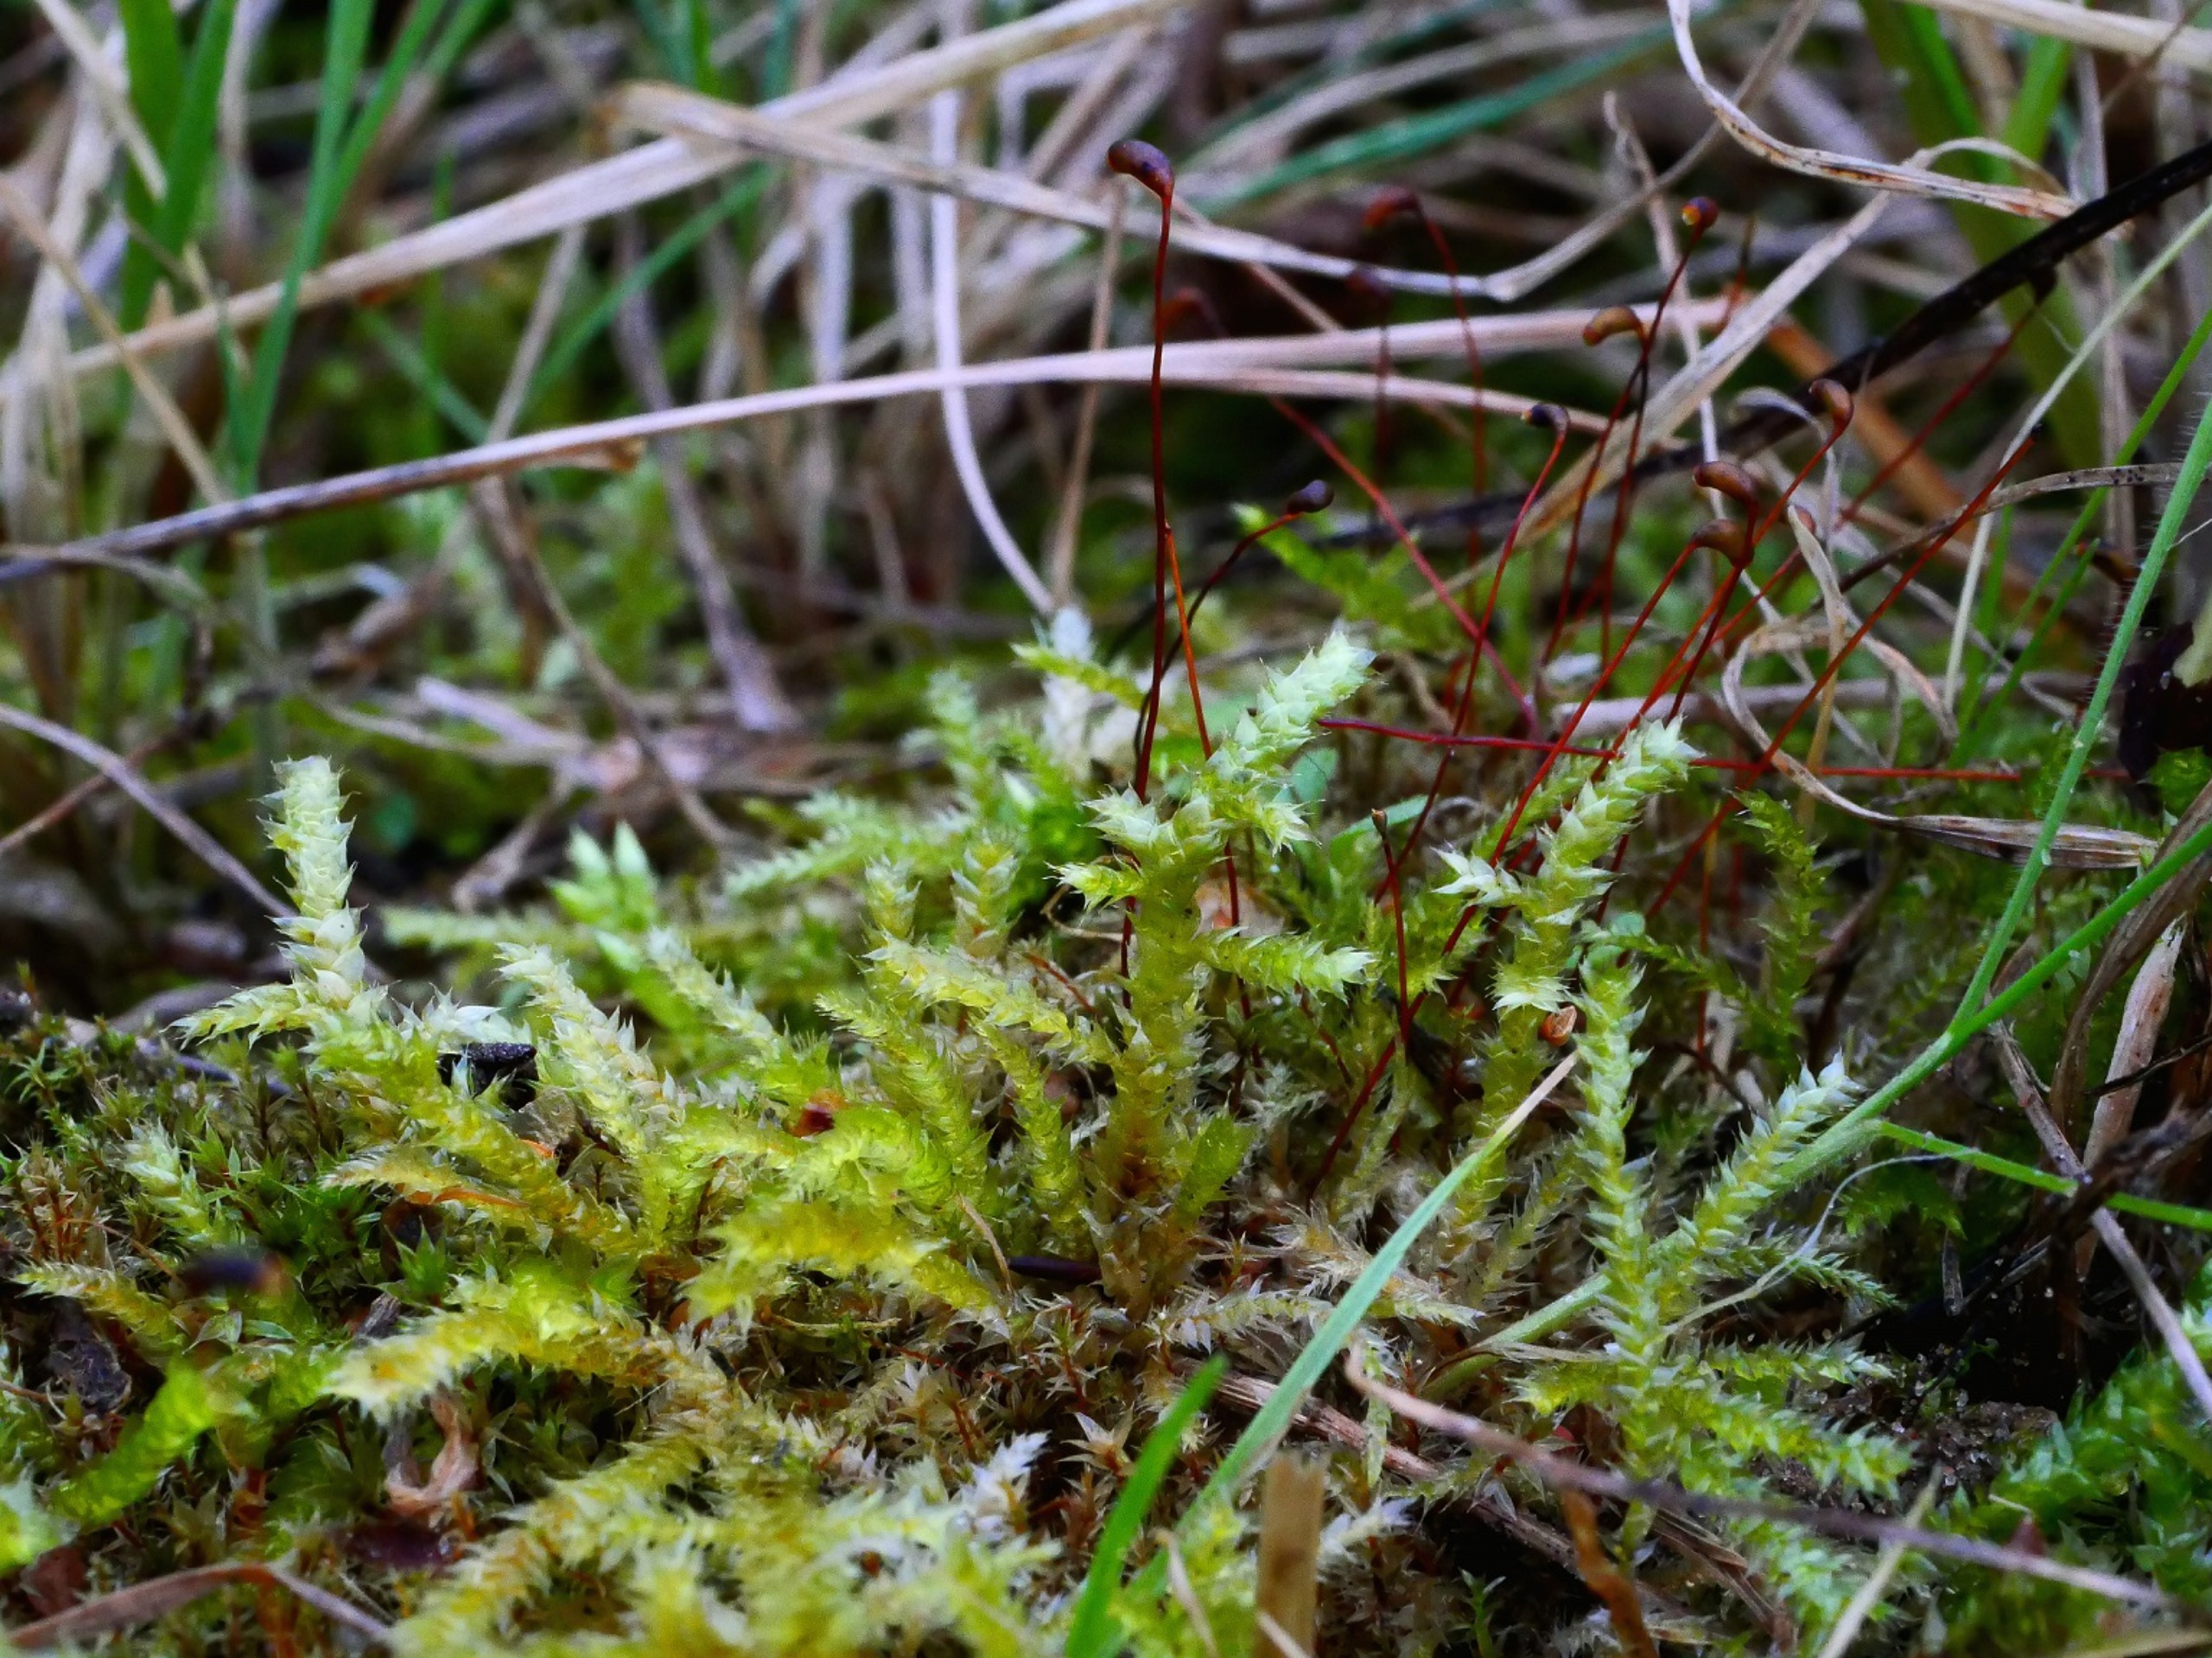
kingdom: Plantae
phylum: Bryophyta
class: Bryopsida
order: Hypnales
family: Brachytheciaceae
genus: Rhynchostegium
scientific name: Rhynchostegium megapolitanum
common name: Bredbladet langnæb
